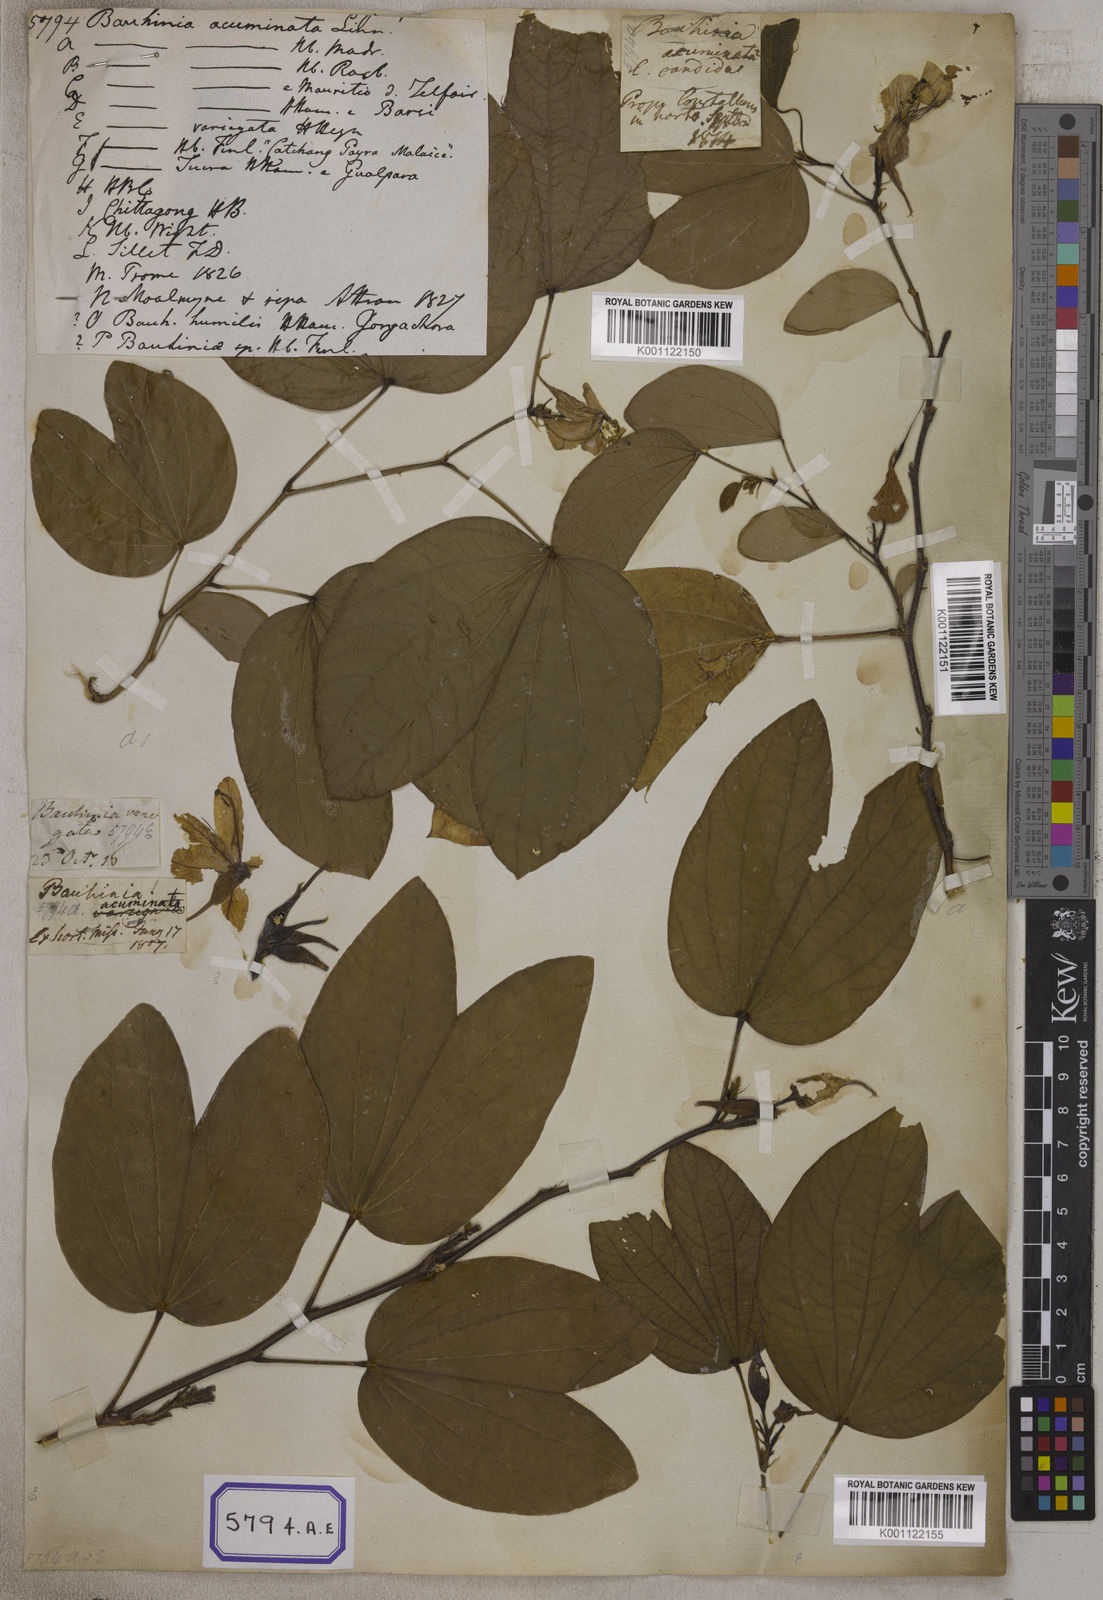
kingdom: Plantae
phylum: Tracheophyta
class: Magnoliopsida
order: Fabales
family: Fabaceae
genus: Bauhinia
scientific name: Bauhinia acuminata
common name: Dwarf white bauhinia
